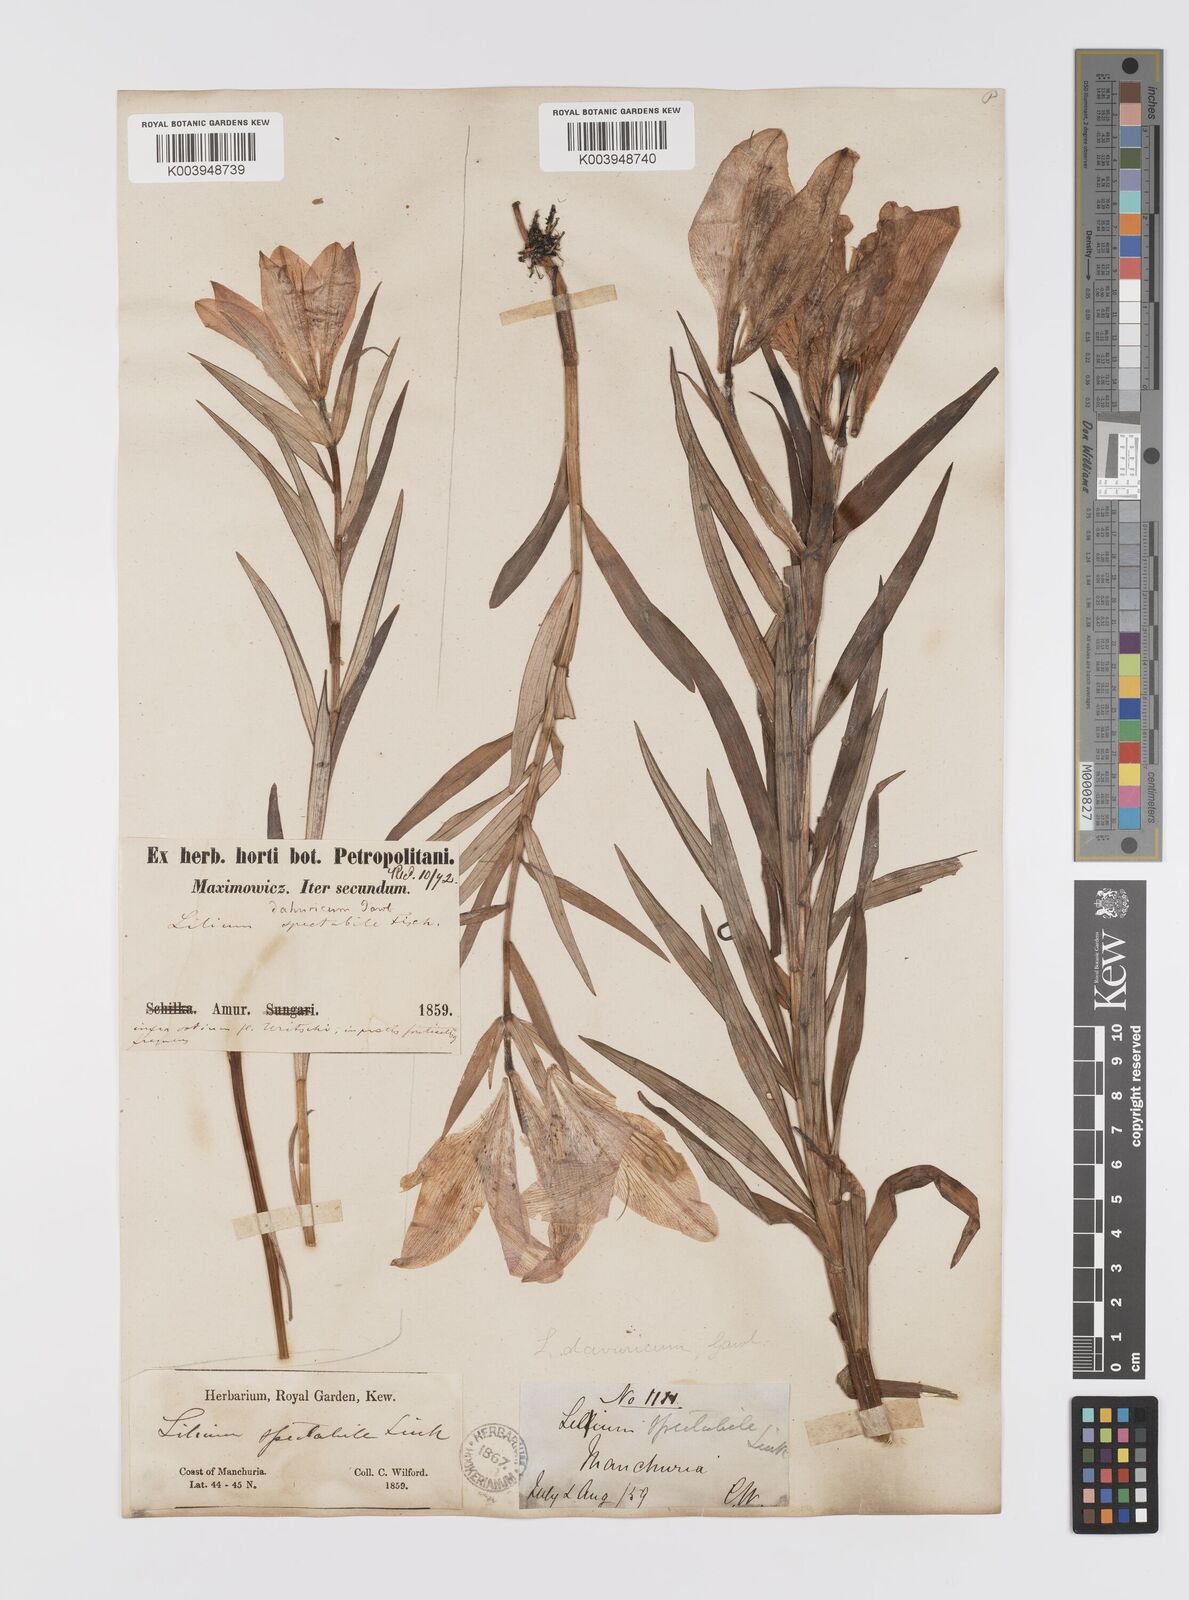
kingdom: Plantae
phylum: Tracheophyta
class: Liliopsida
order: Liliales
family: Liliaceae
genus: Lilium
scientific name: Lilium pensylvanicum
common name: Candlestick lily
